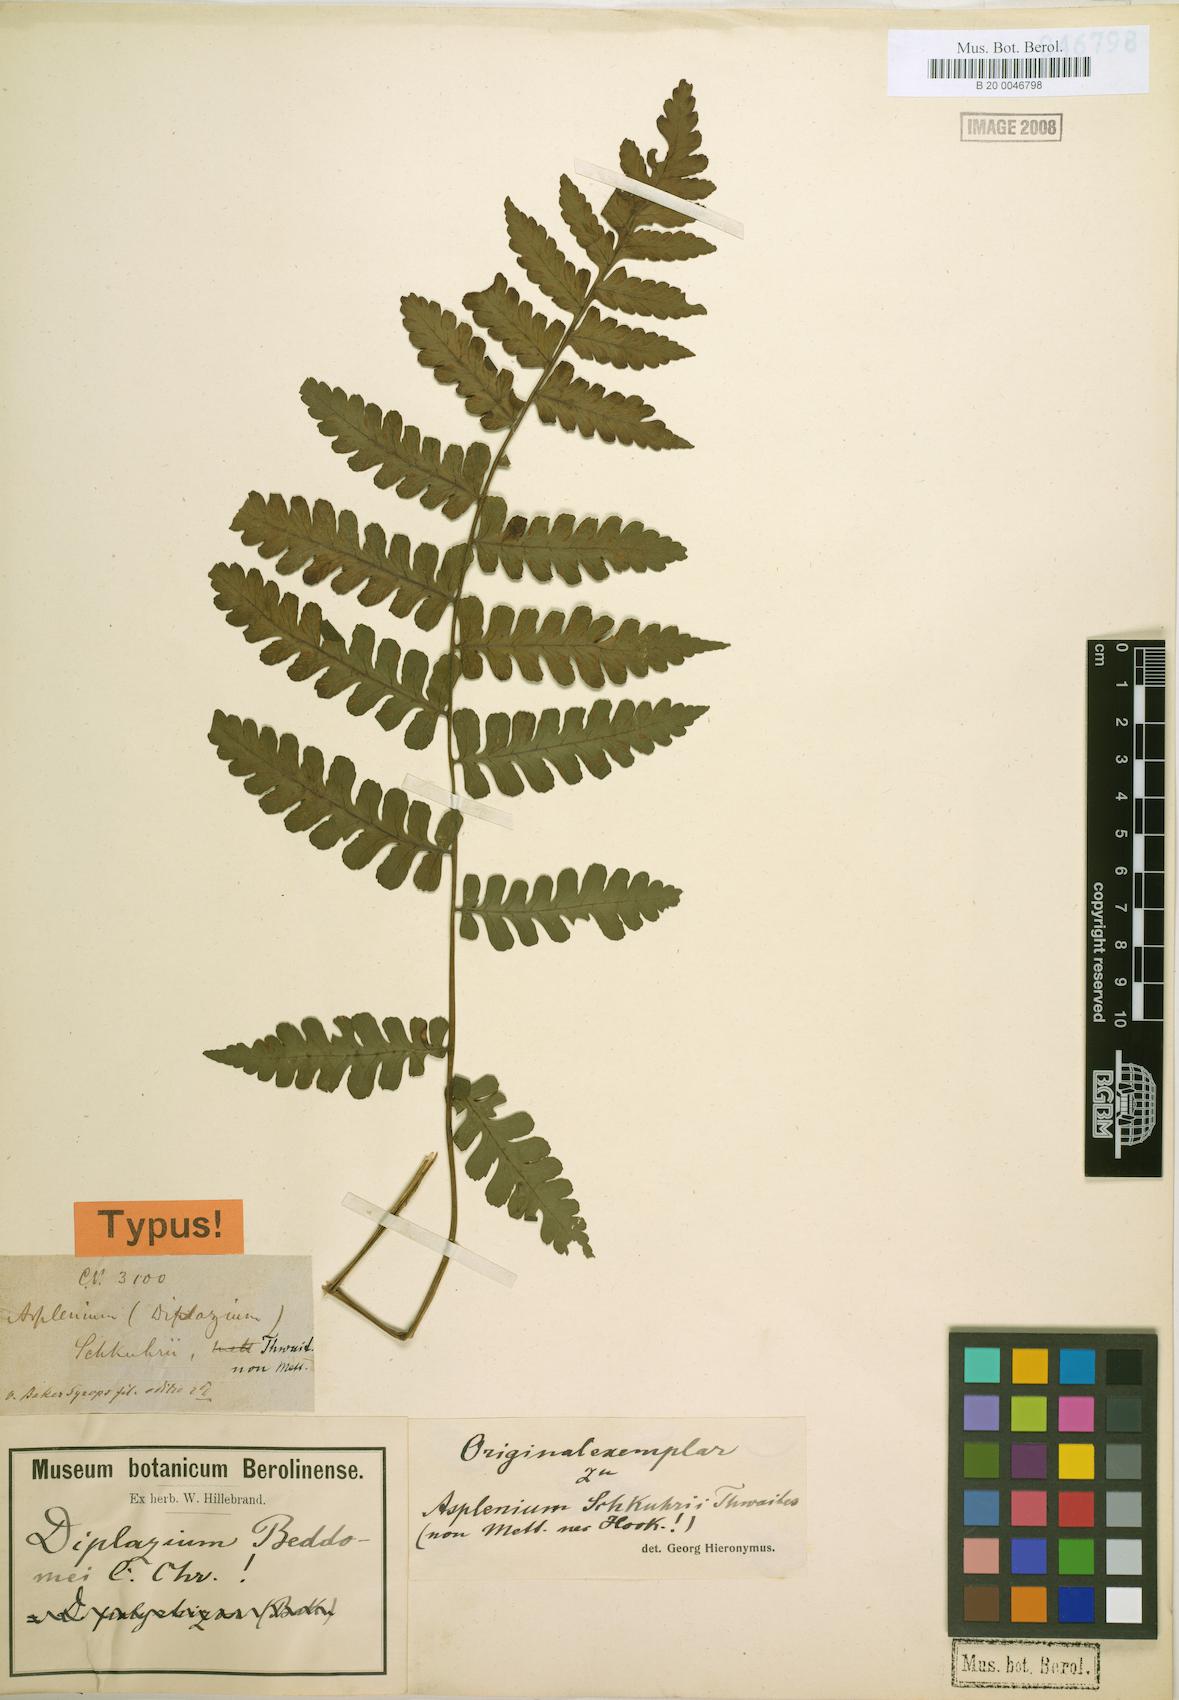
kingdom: Plantae
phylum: Tracheophyta
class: Polypodiopsida
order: Polypodiales
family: Athyriaceae
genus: Diplazium
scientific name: Diplazium beddomei
